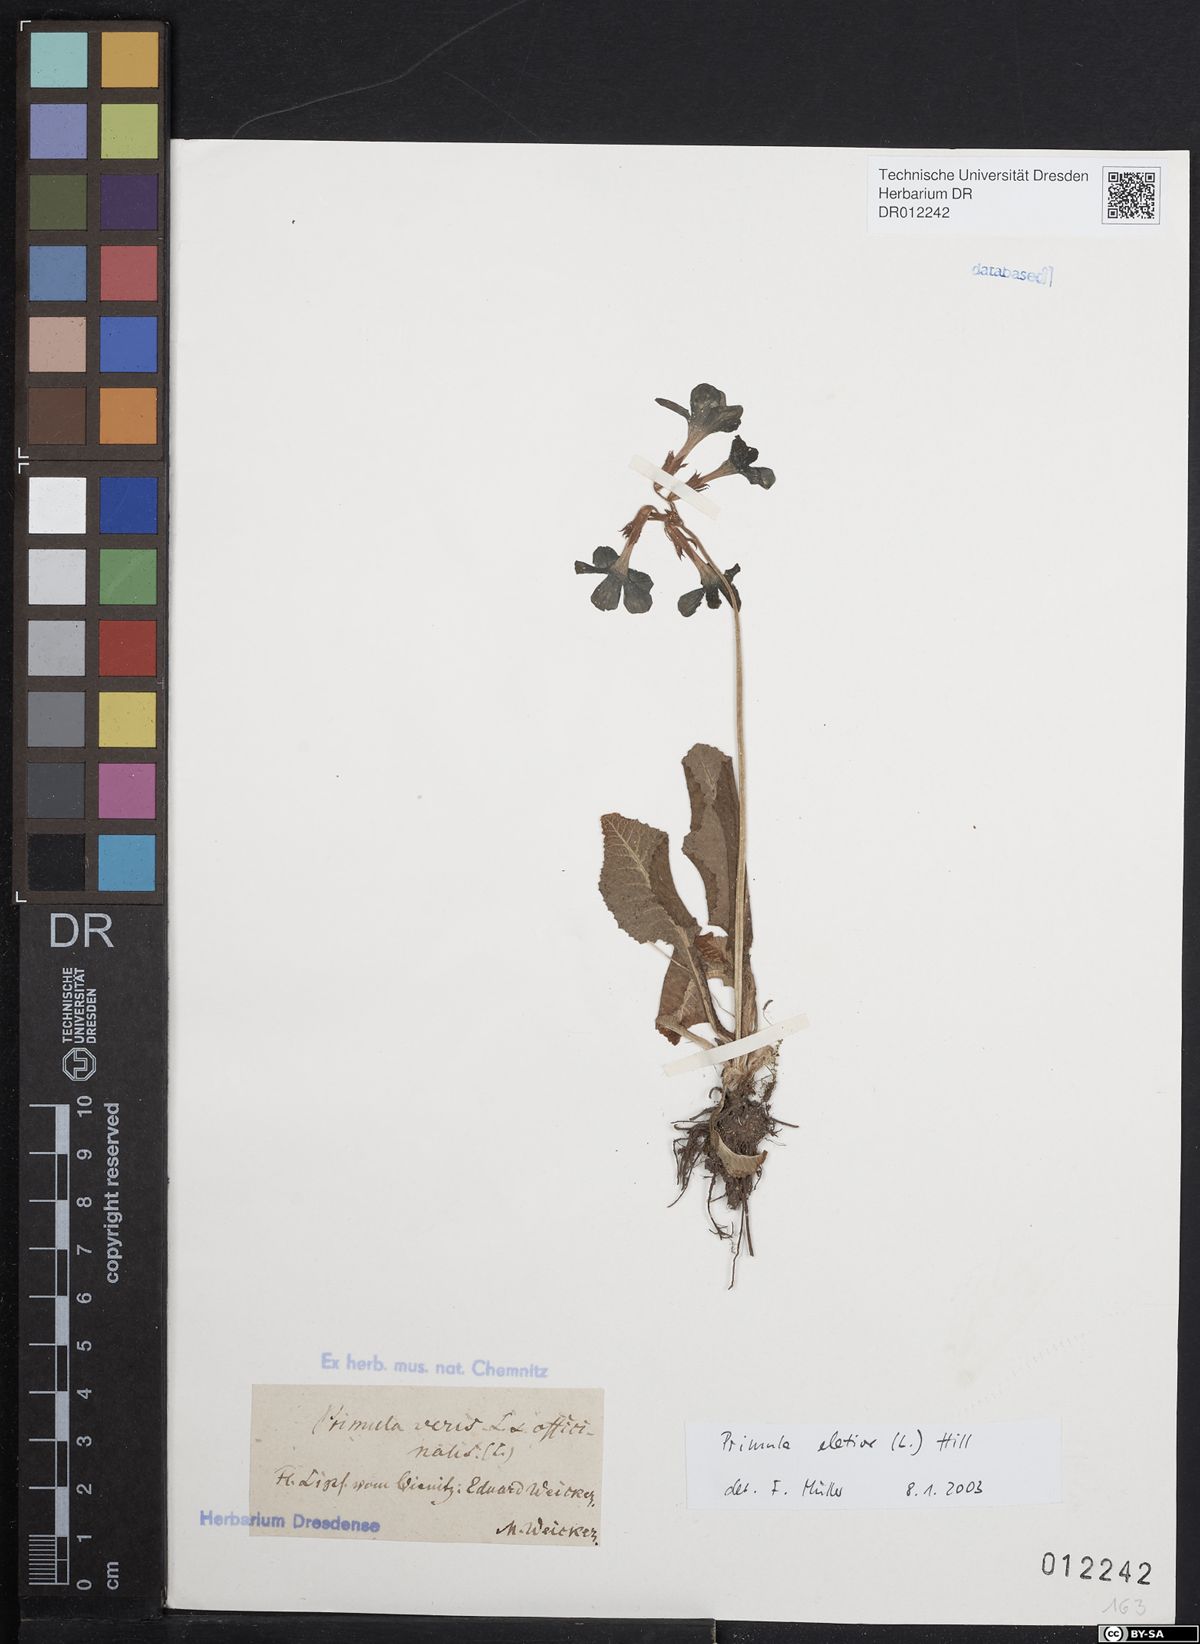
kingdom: Plantae
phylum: Tracheophyta
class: Magnoliopsida
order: Ericales
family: Primulaceae
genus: Primula
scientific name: Primula elatior
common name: Oxlip
